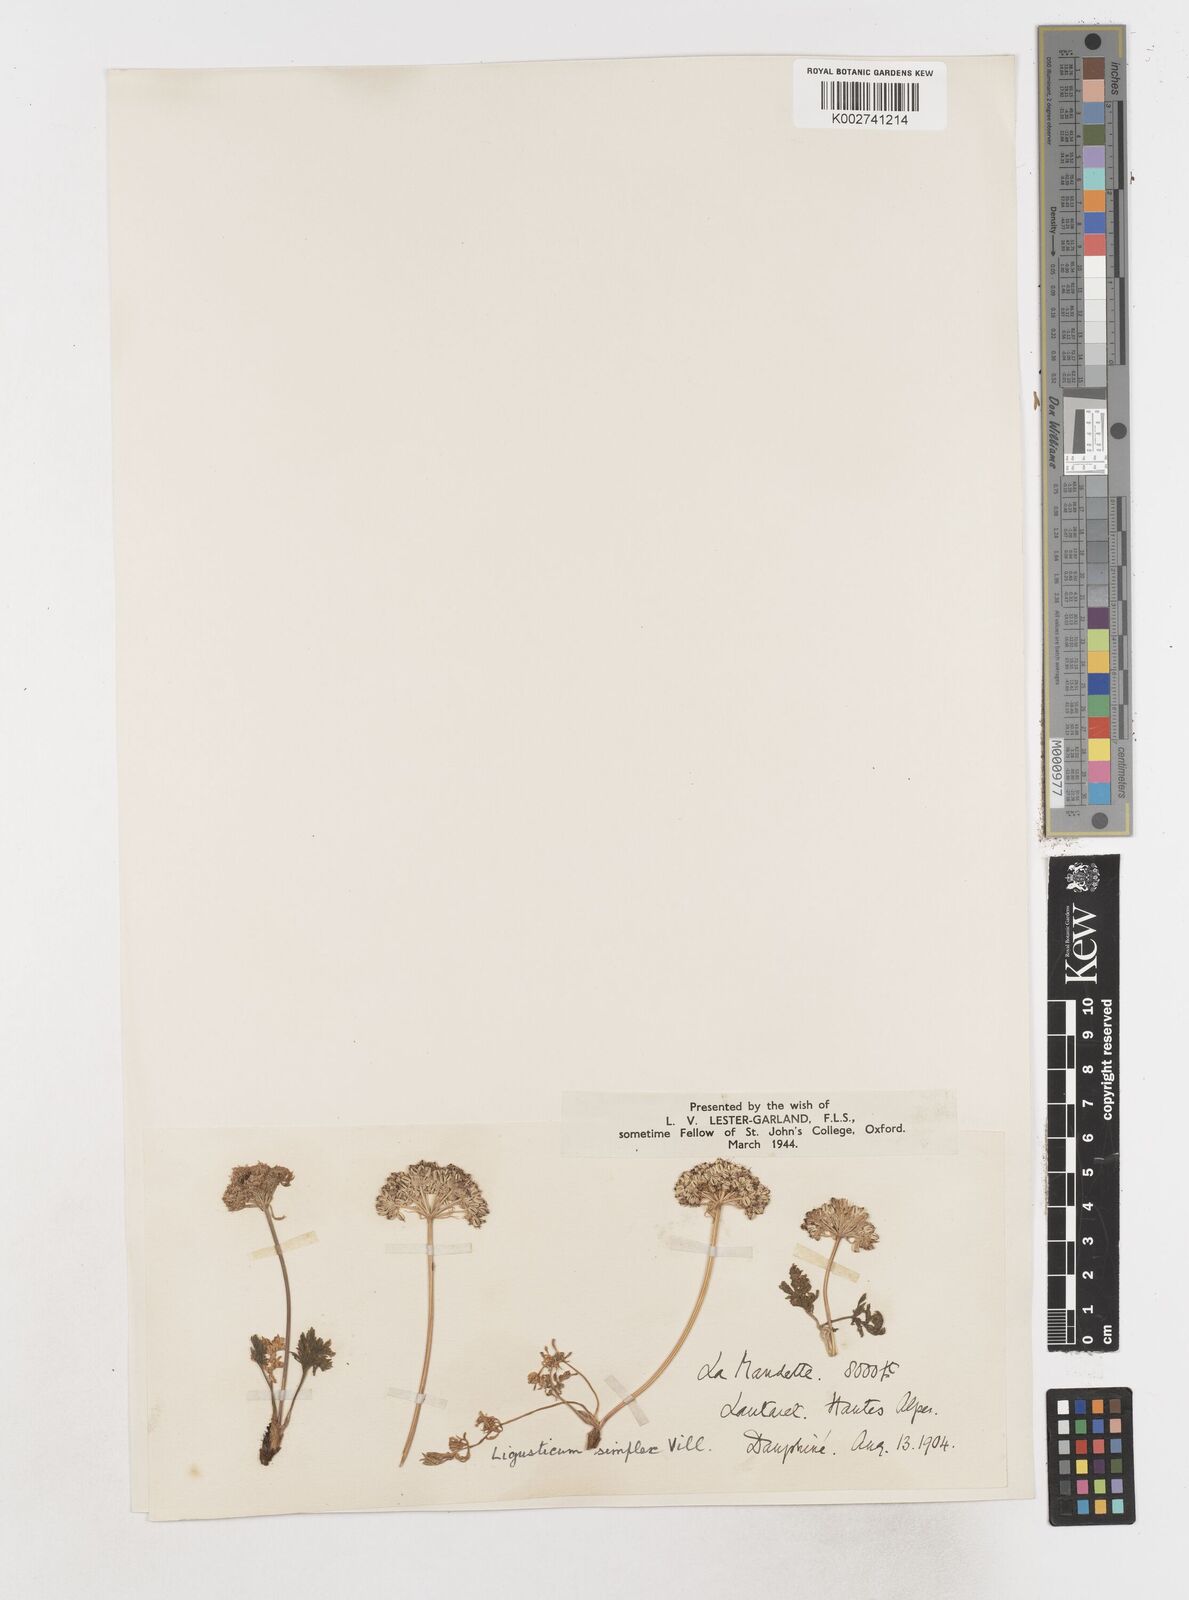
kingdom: Plantae
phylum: Tracheophyta
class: Magnoliopsida
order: Apiales
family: Apiaceae
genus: Pachypleurum
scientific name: Pachypleurum mutellinoides
